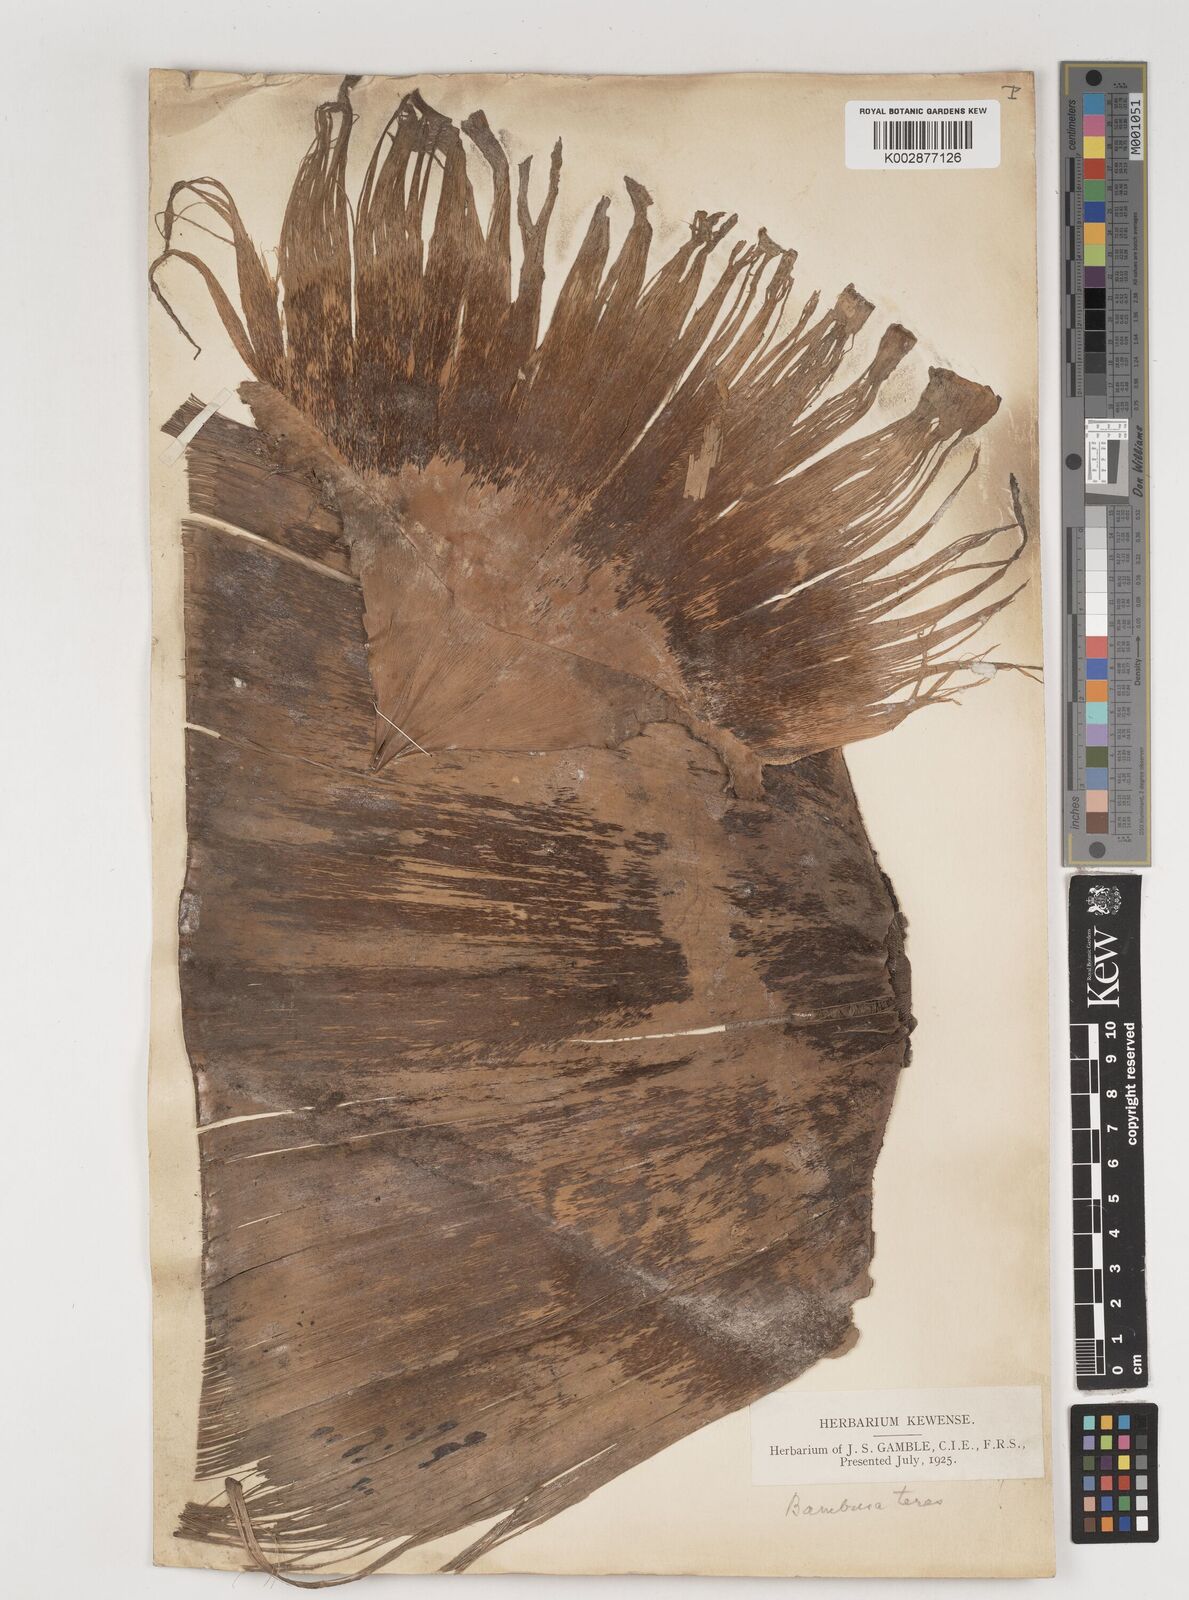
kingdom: Plantae
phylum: Tracheophyta
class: Liliopsida
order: Poales
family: Poaceae
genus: Bambusa
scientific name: Bambusa
